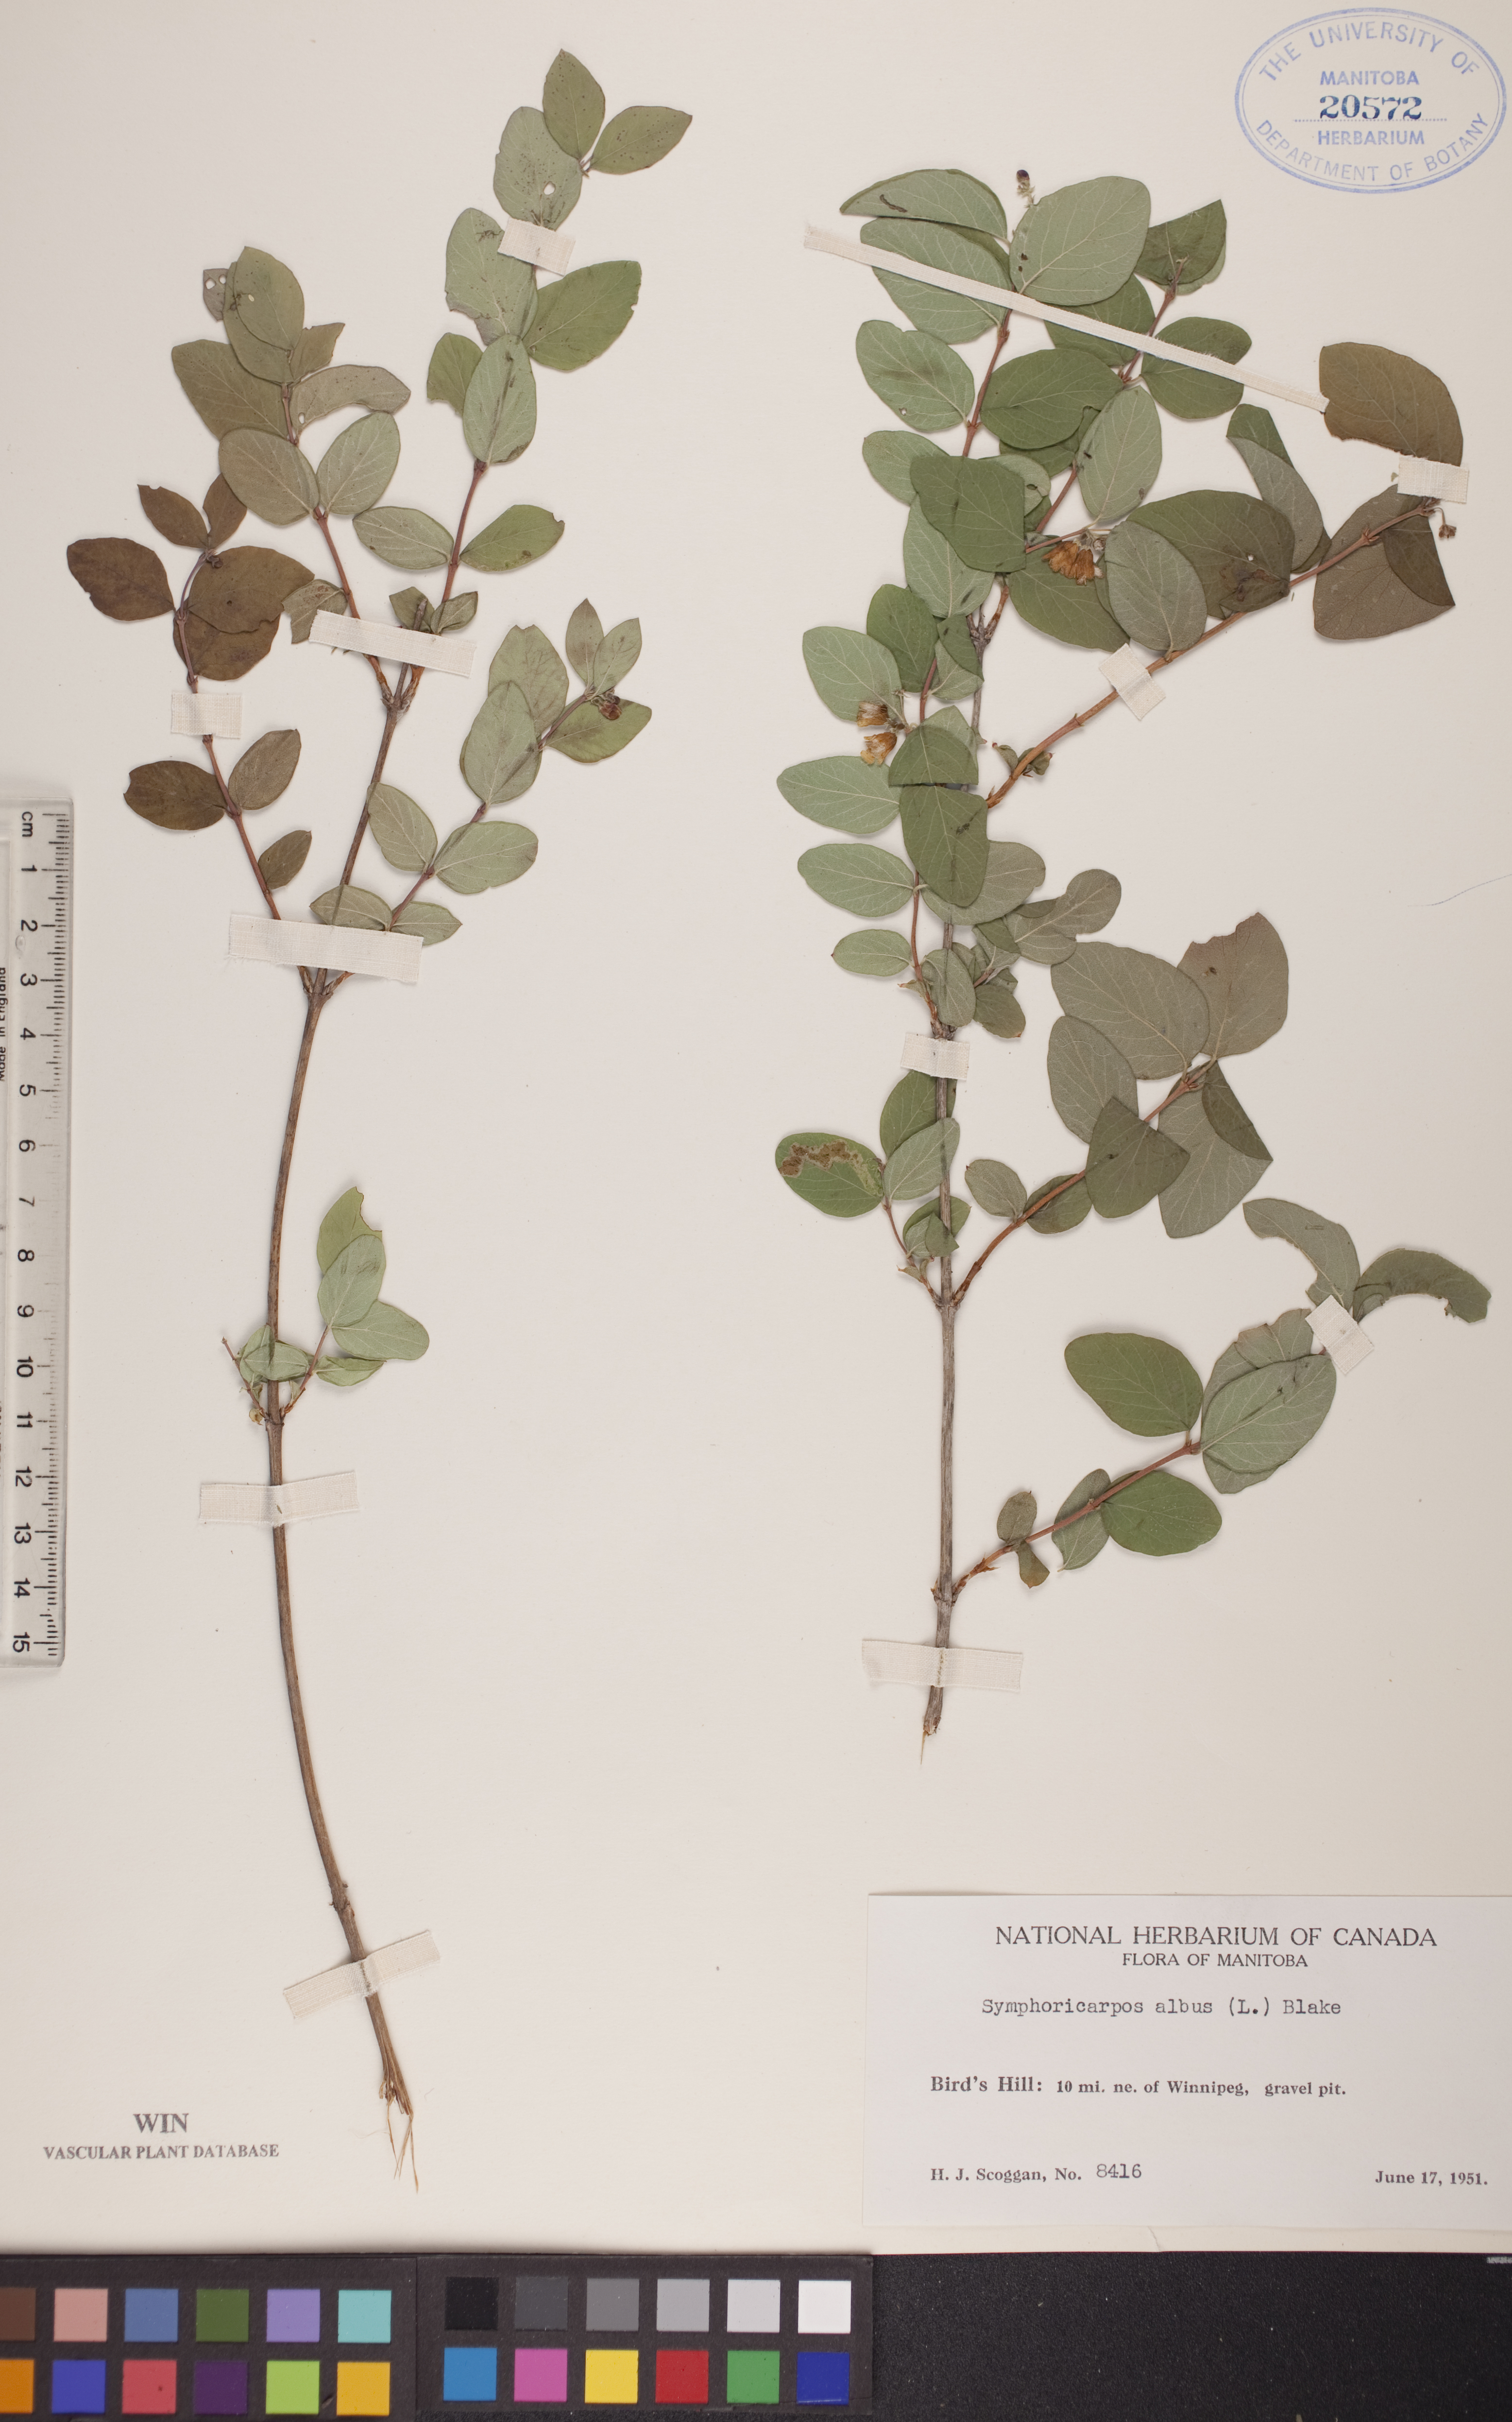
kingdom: Plantae
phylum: Tracheophyta
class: Magnoliopsida
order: Dipsacales
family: Caprifoliaceae
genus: Symphoricarpos
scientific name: Symphoricarpos albus
